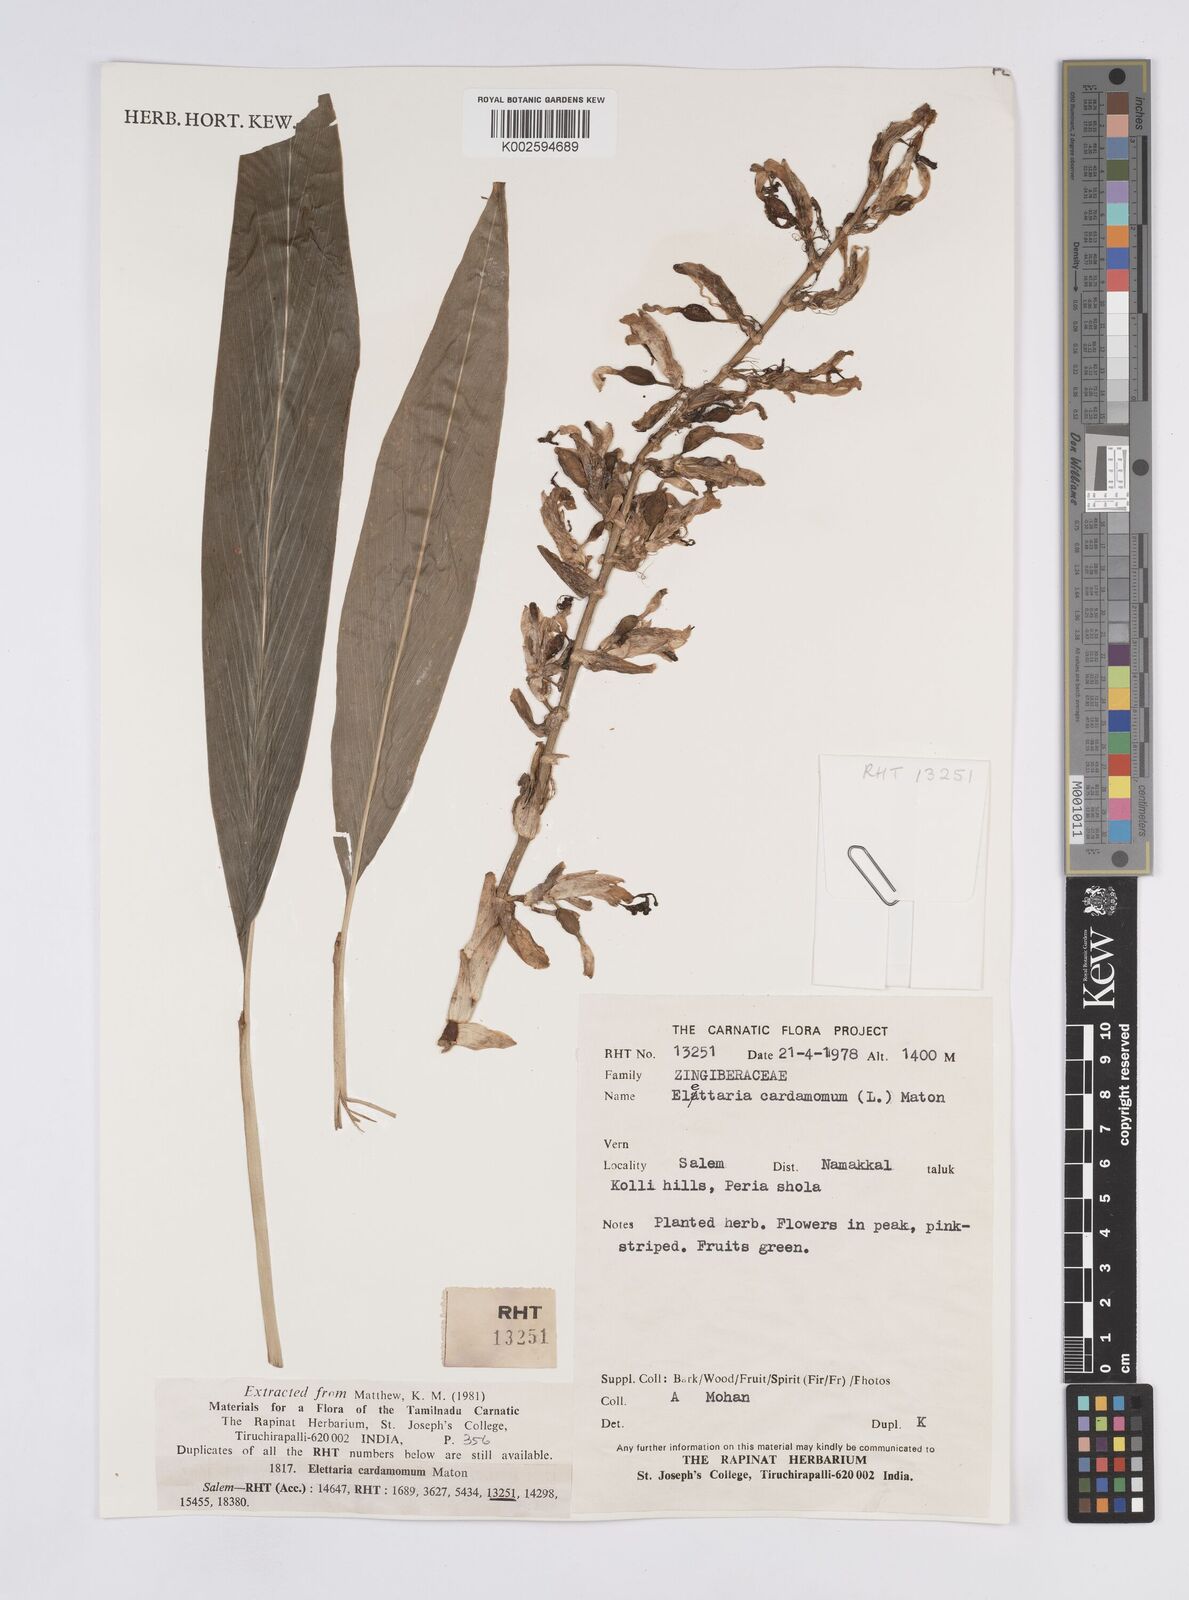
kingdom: Plantae
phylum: Tracheophyta
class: Liliopsida
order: Zingiberales
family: Zingiberaceae
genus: Elettaria
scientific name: Elettaria cardamomum
